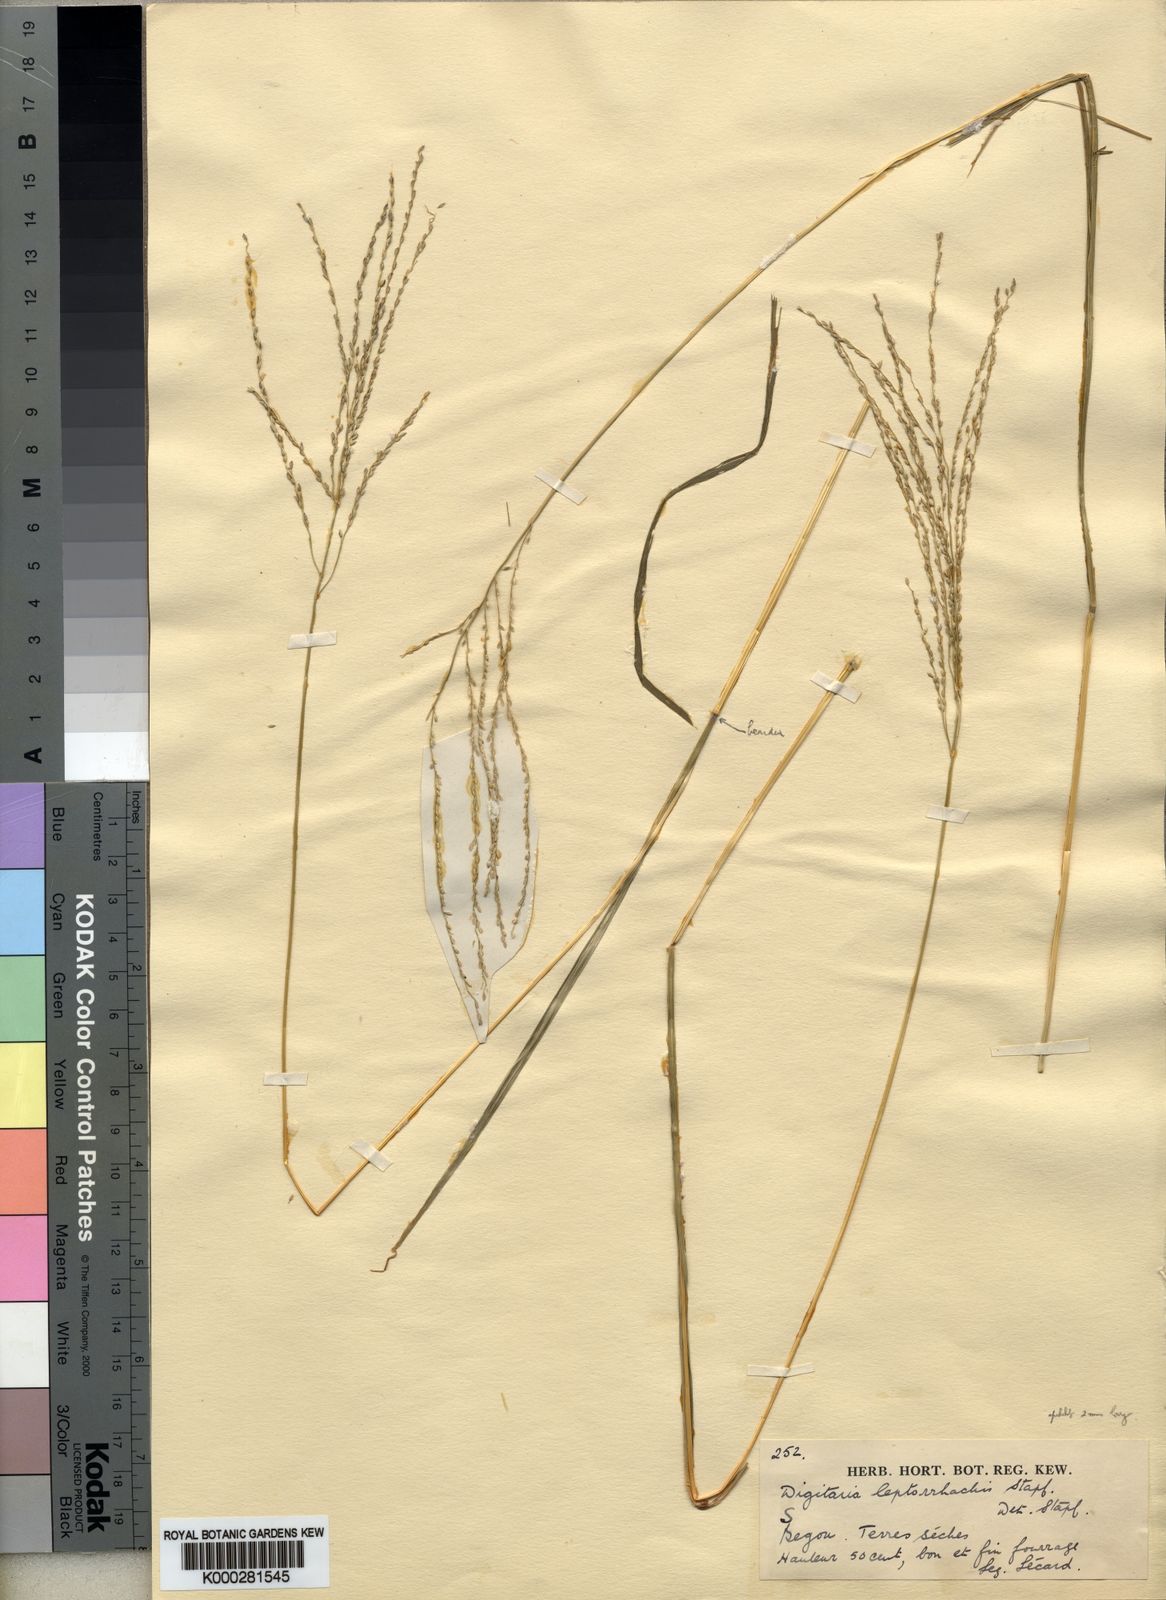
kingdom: Plantae
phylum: Tracheophyta
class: Liliopsida
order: Poales
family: Poaceae
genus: Digitaria
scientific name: Digitaria leptorhachis
